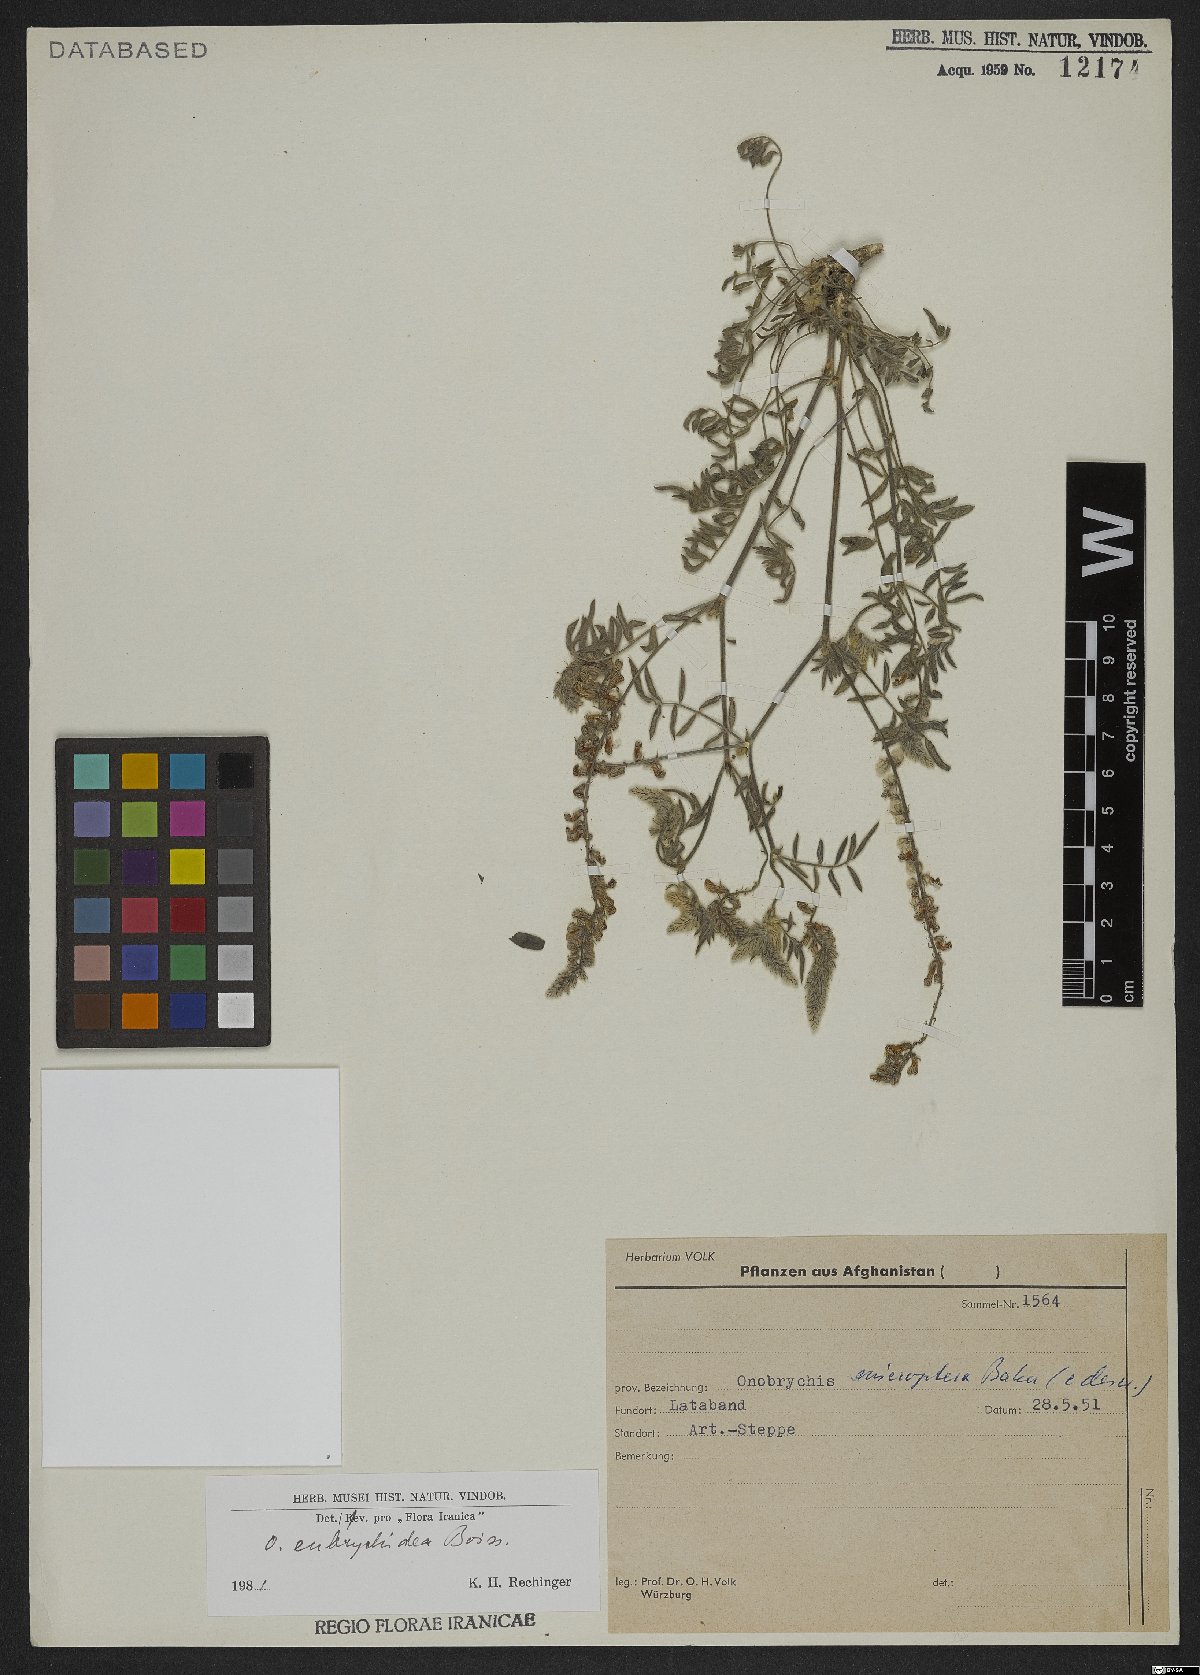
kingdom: Plantae
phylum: Tracheophyta
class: Magnoliopsida
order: Fabales
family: Fabaceae
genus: Onobrychis
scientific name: Onobrychis eubrychidea
